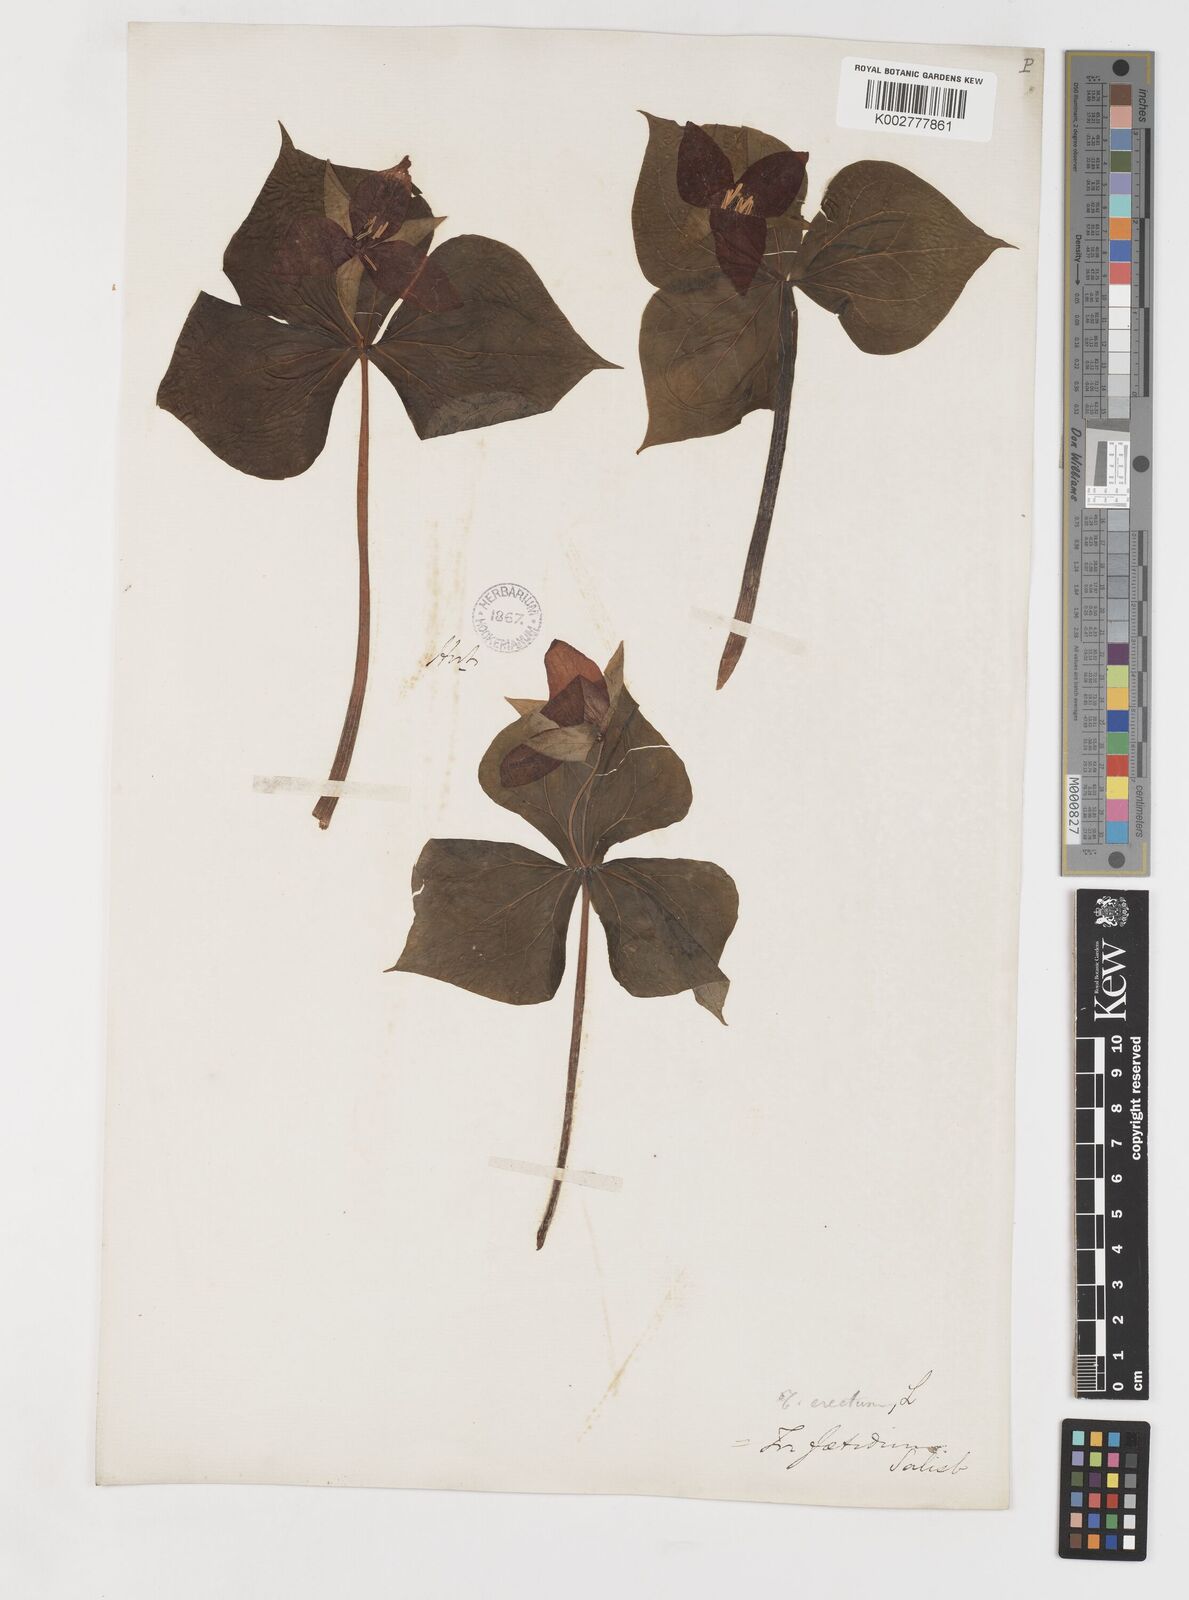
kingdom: Plantae
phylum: Tracheophyta
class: Liliopsida
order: Liliales
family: Melanthiaceae
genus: Trillium
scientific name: Trillium erectum
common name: Purple trillium
